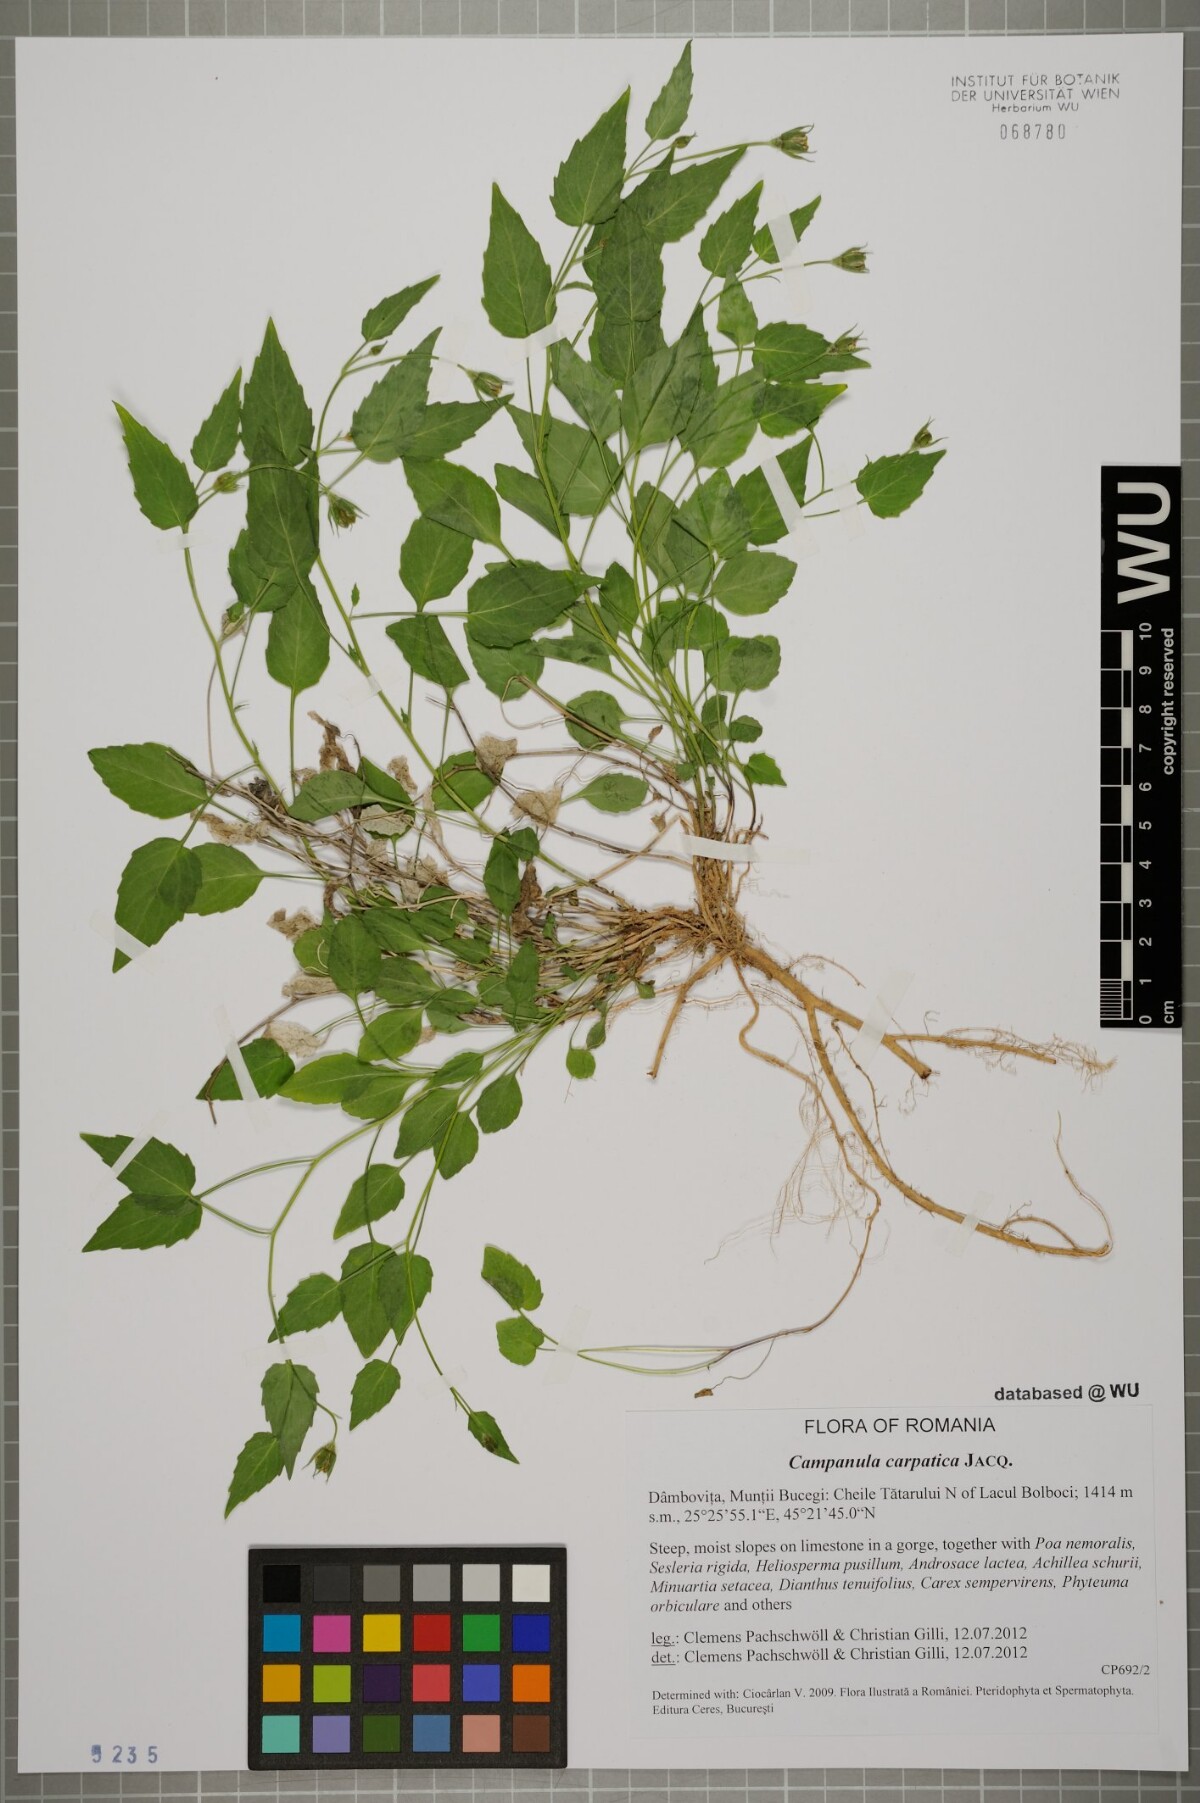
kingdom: Plantae
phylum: Tracheophyta
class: Magnoliopsida
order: Asterales
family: Campanulaceae
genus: Campanula
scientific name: Campanula carpatica
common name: Tussock bellflower
